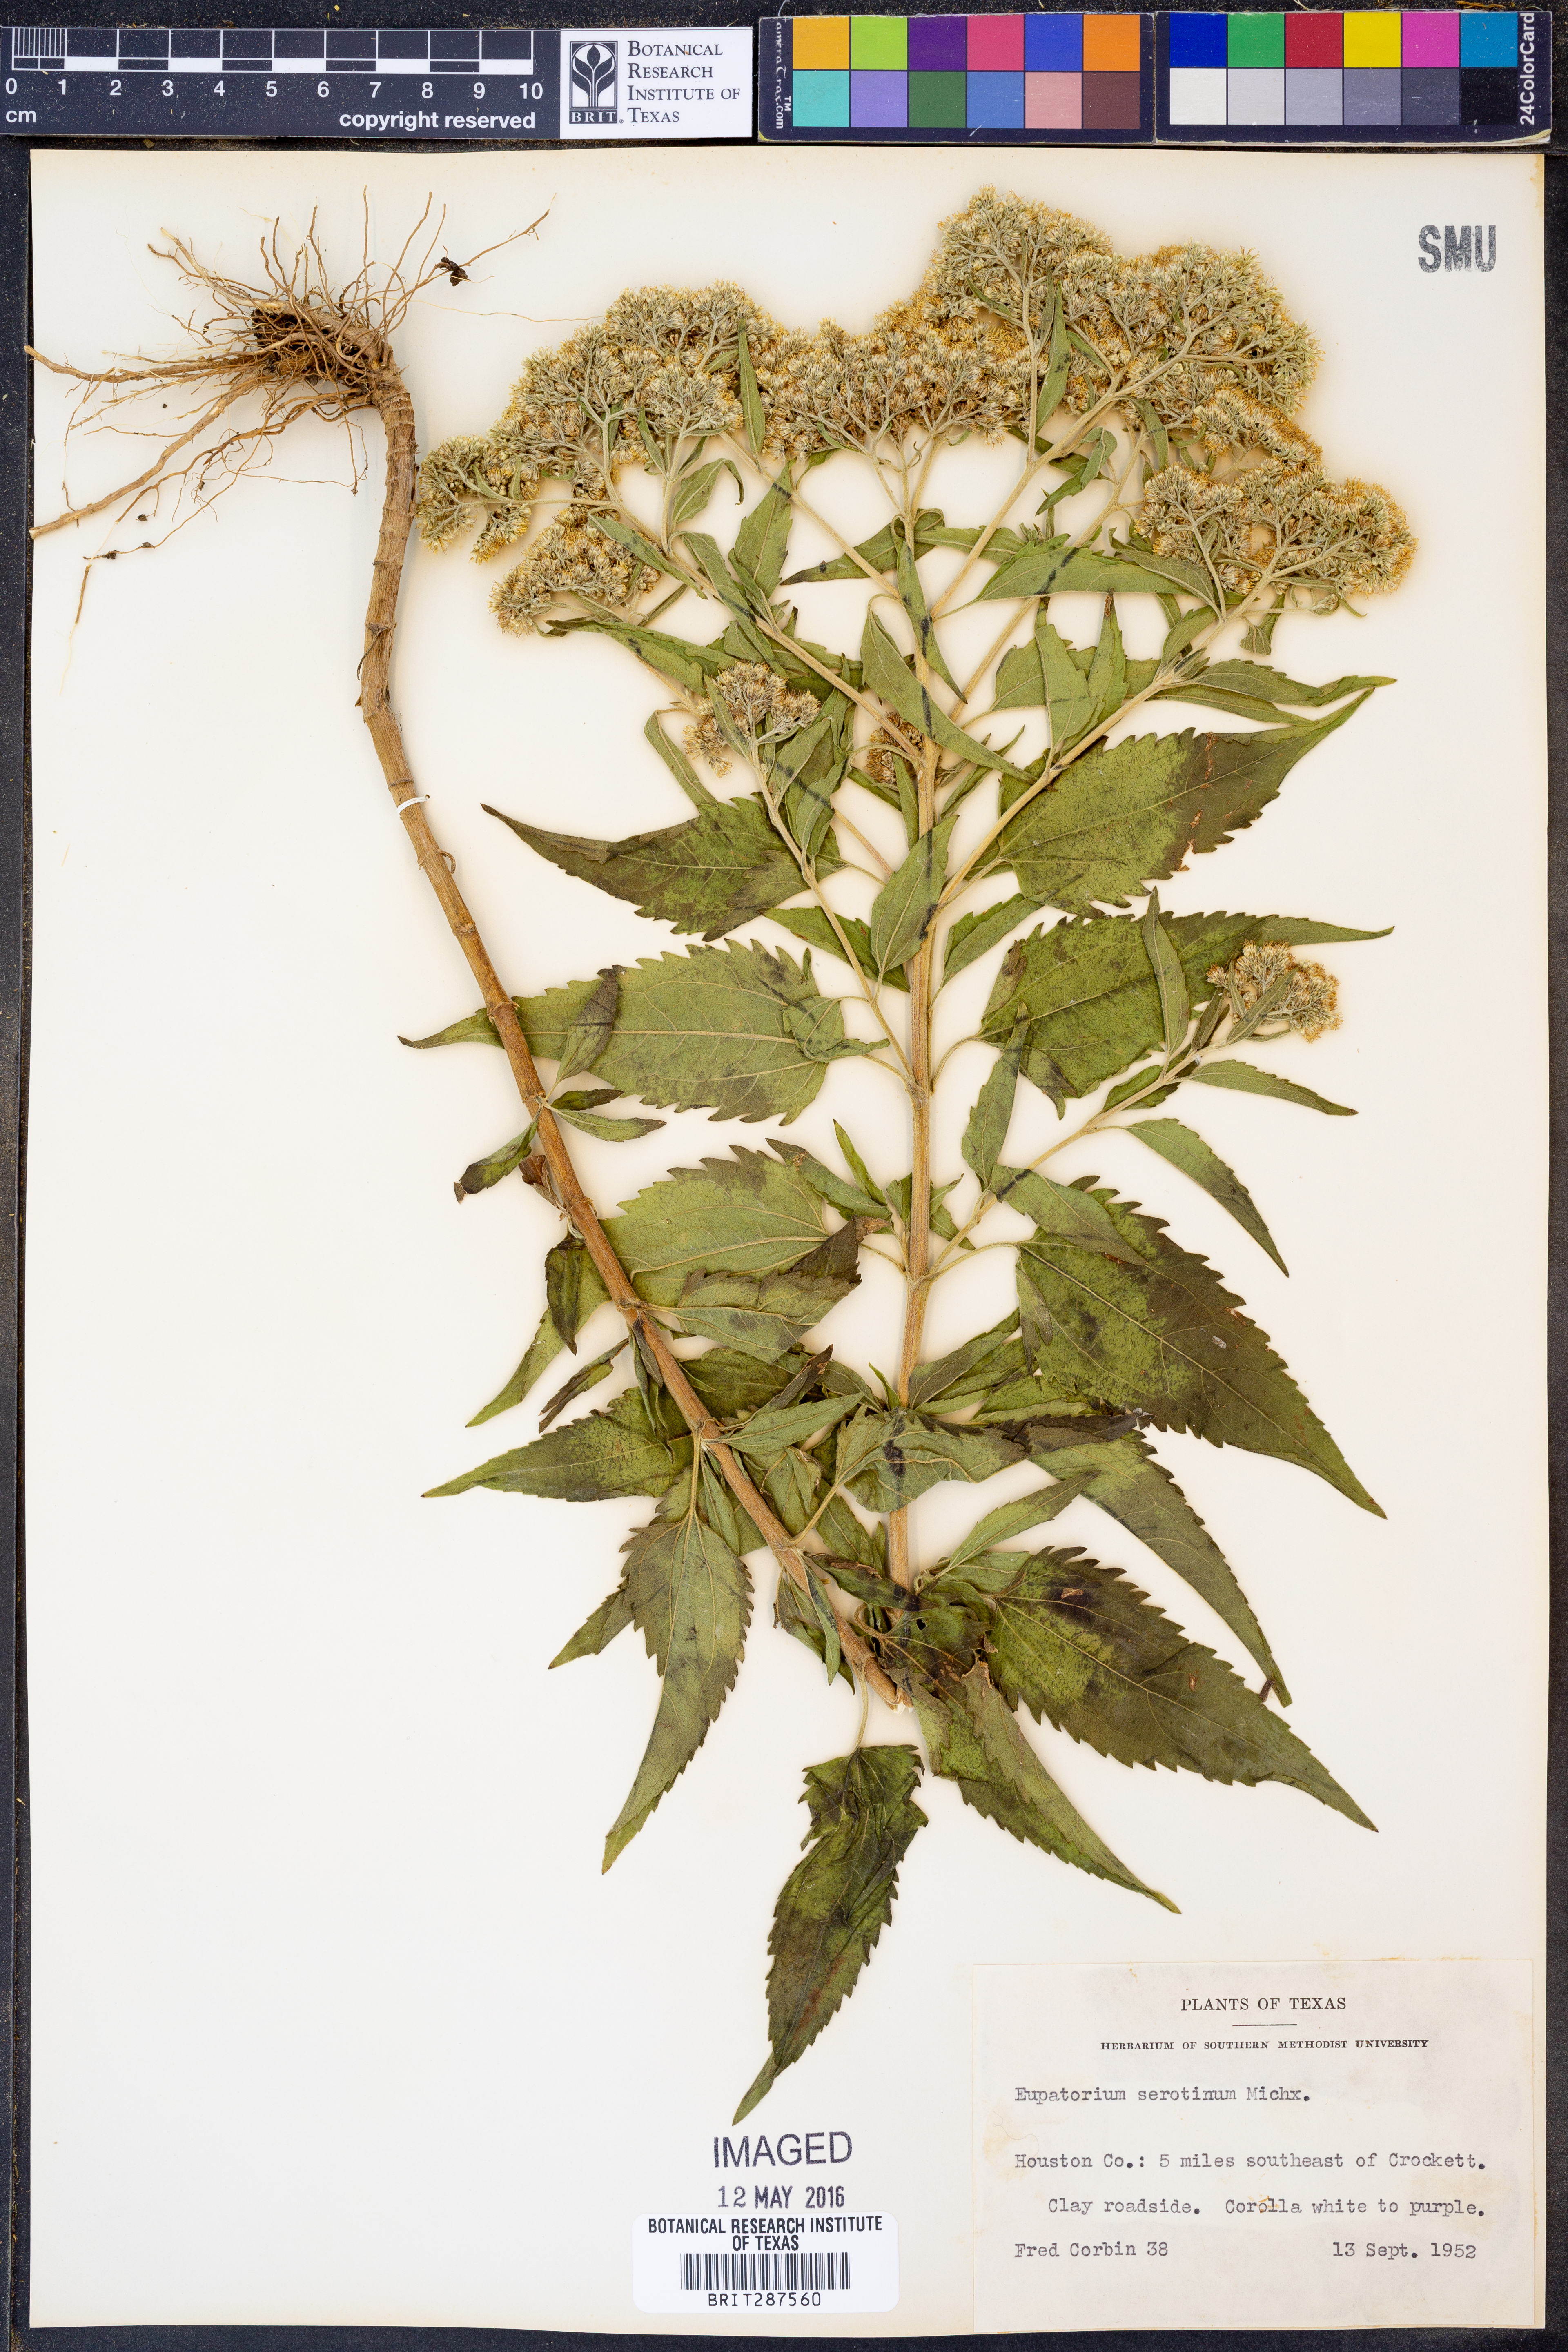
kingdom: Plantae
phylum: Tracheophyta
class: Magnoliopsida
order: Asterales
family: Asteraceae
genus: Eupatorium
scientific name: Eupatorium serotinum
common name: Late boneset
